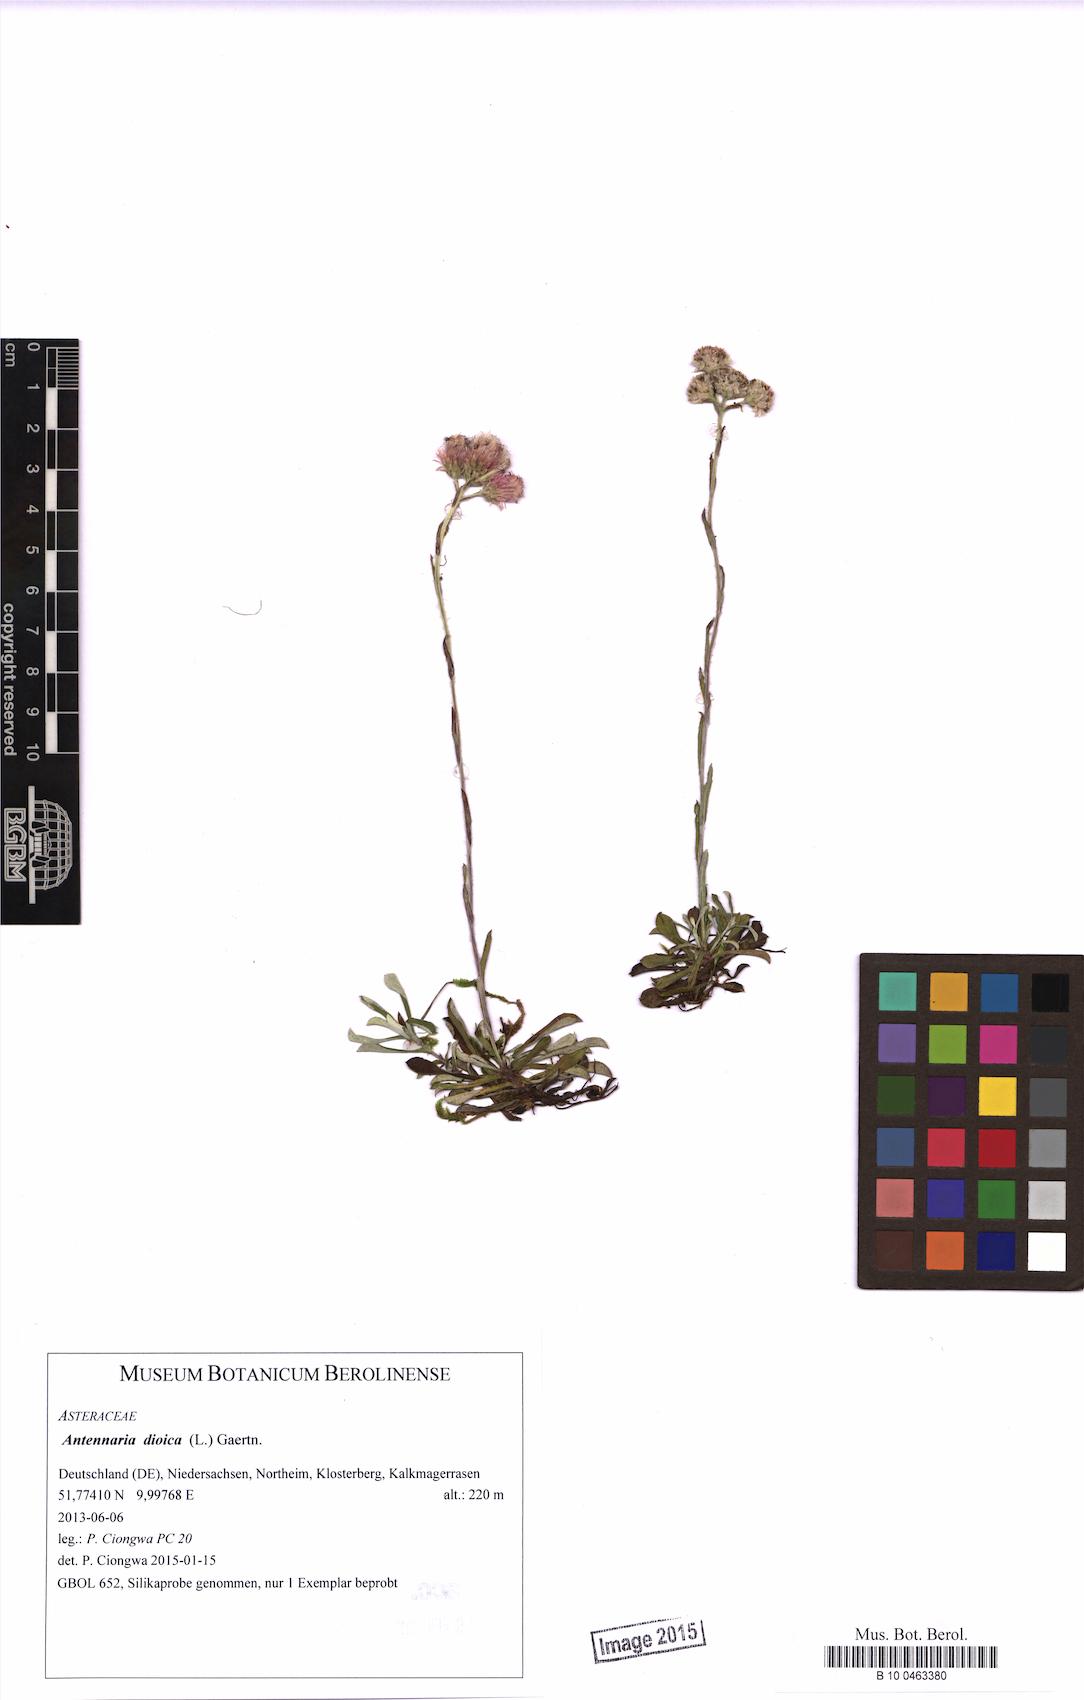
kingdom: Plantae
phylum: Tracheophyta
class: Magnoliopsida
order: Asterales
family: Asteraceae
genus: Antennaria
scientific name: Antennaria dioica
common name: Mountain everlasting
